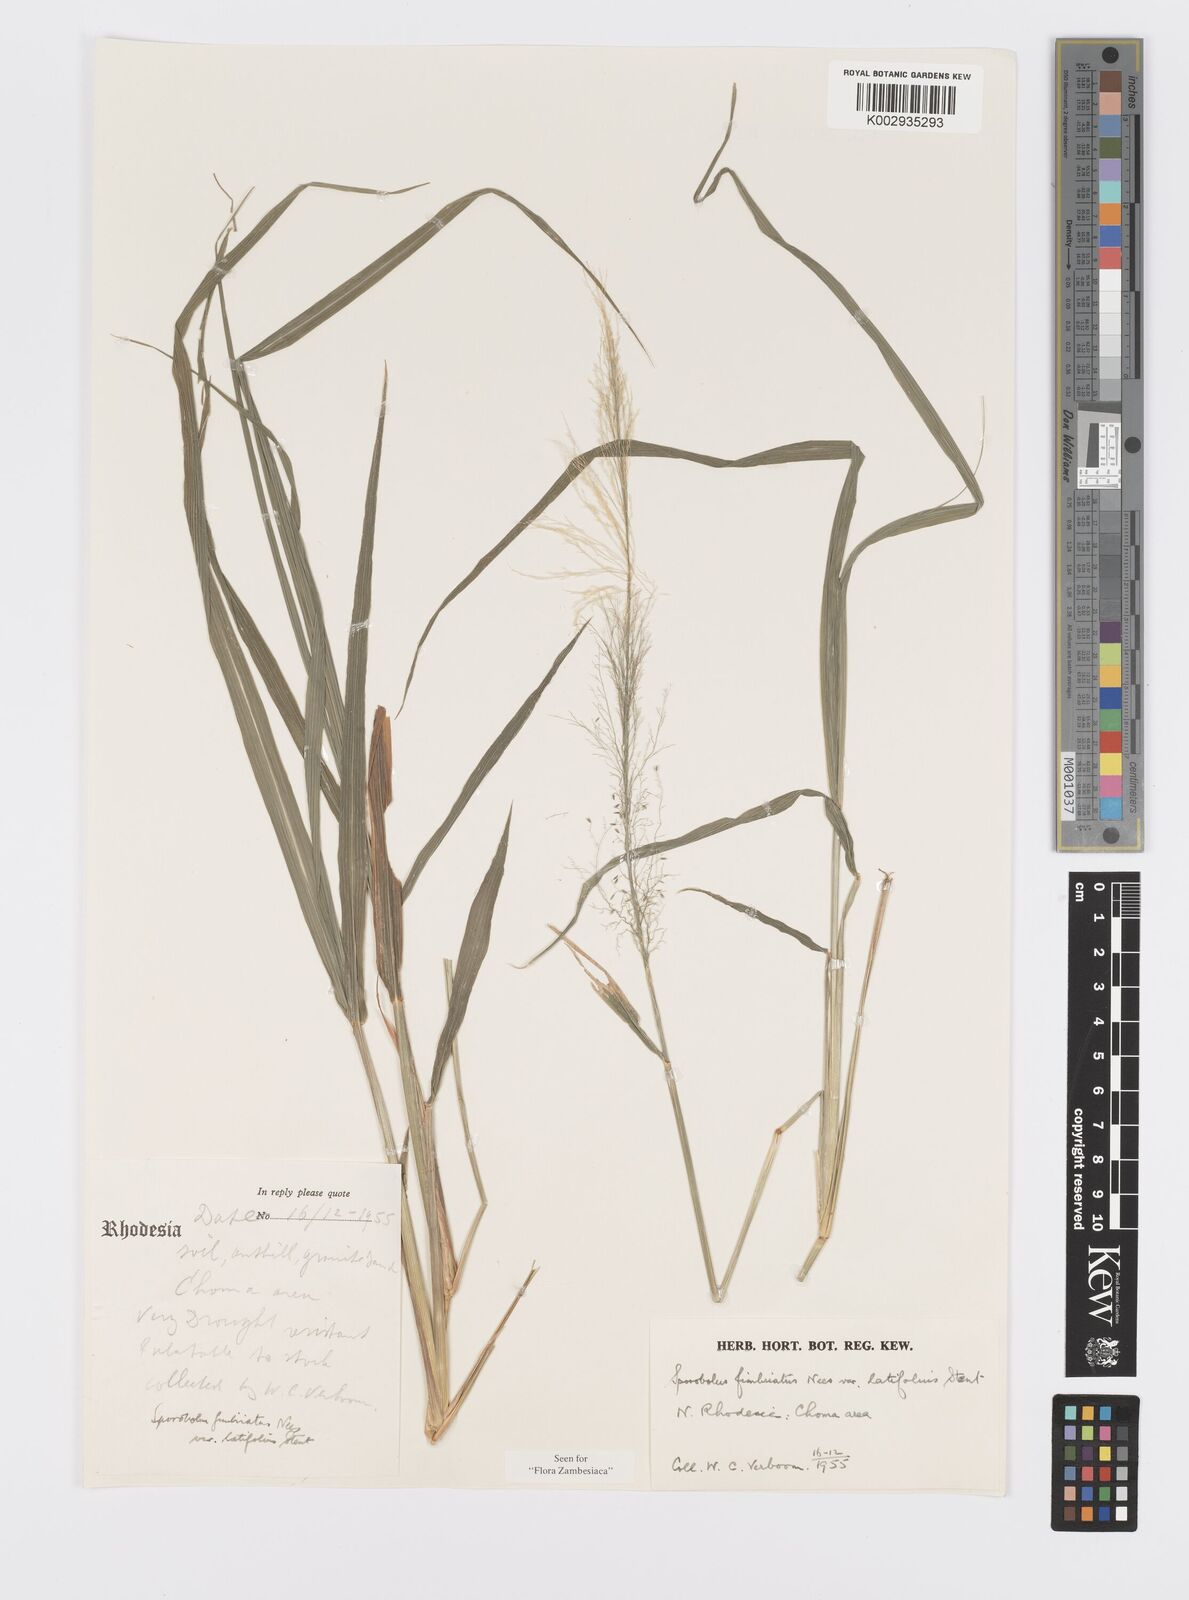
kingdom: Plantae
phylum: Tracheophyta
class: Liliopsida
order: Poales
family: Poaceae
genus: Sporobolus
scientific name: Sporobolus fimbriatus
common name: Fringed dropseed
